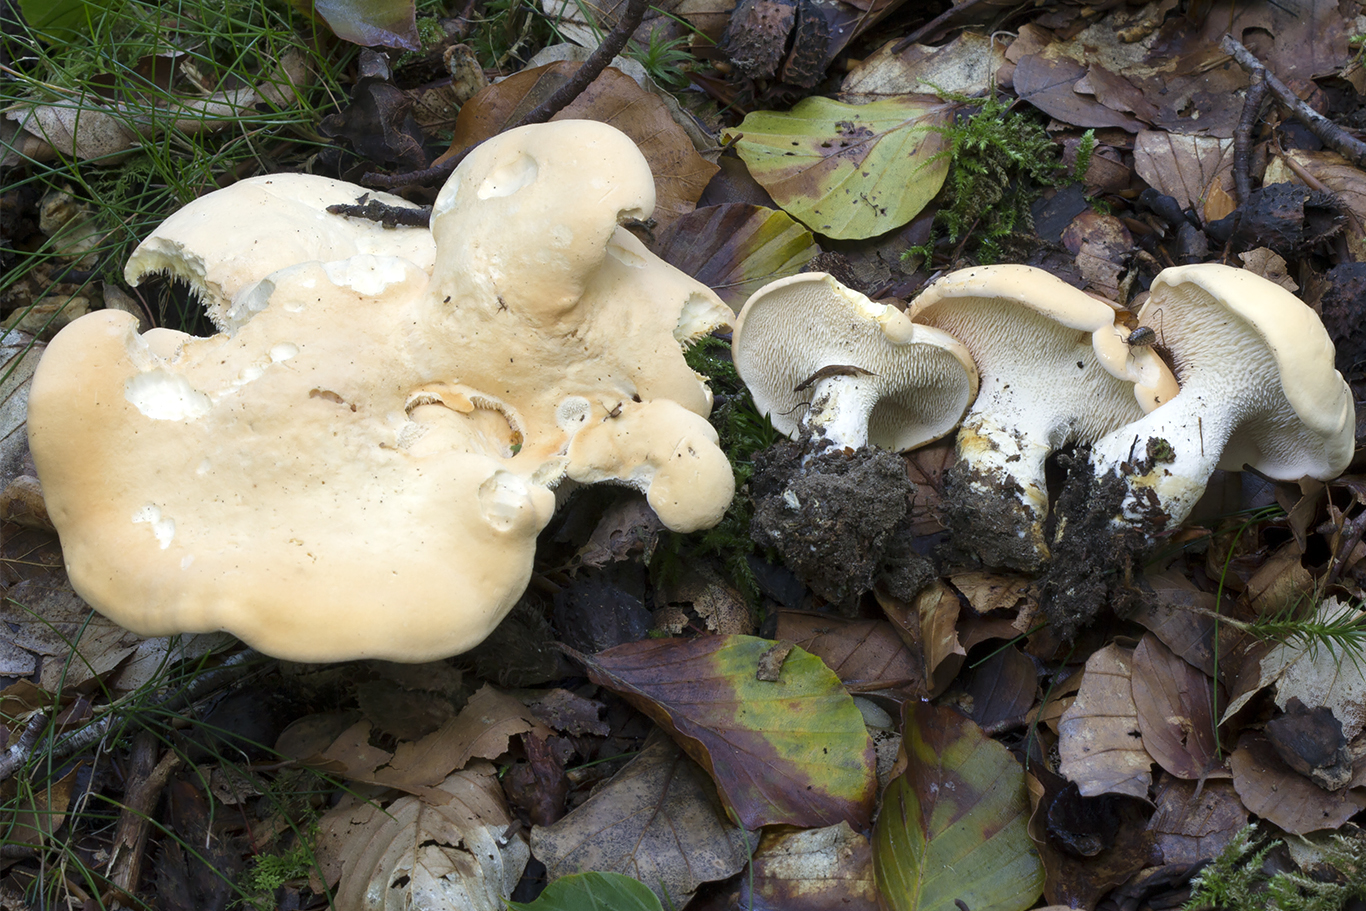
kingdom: Fungi
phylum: Basidiomycota
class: Agaricomycetes
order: Cantharellales
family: Hydnaceae
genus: Hydnum
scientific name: Hydnum repandum
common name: almindelig pigsvamp
